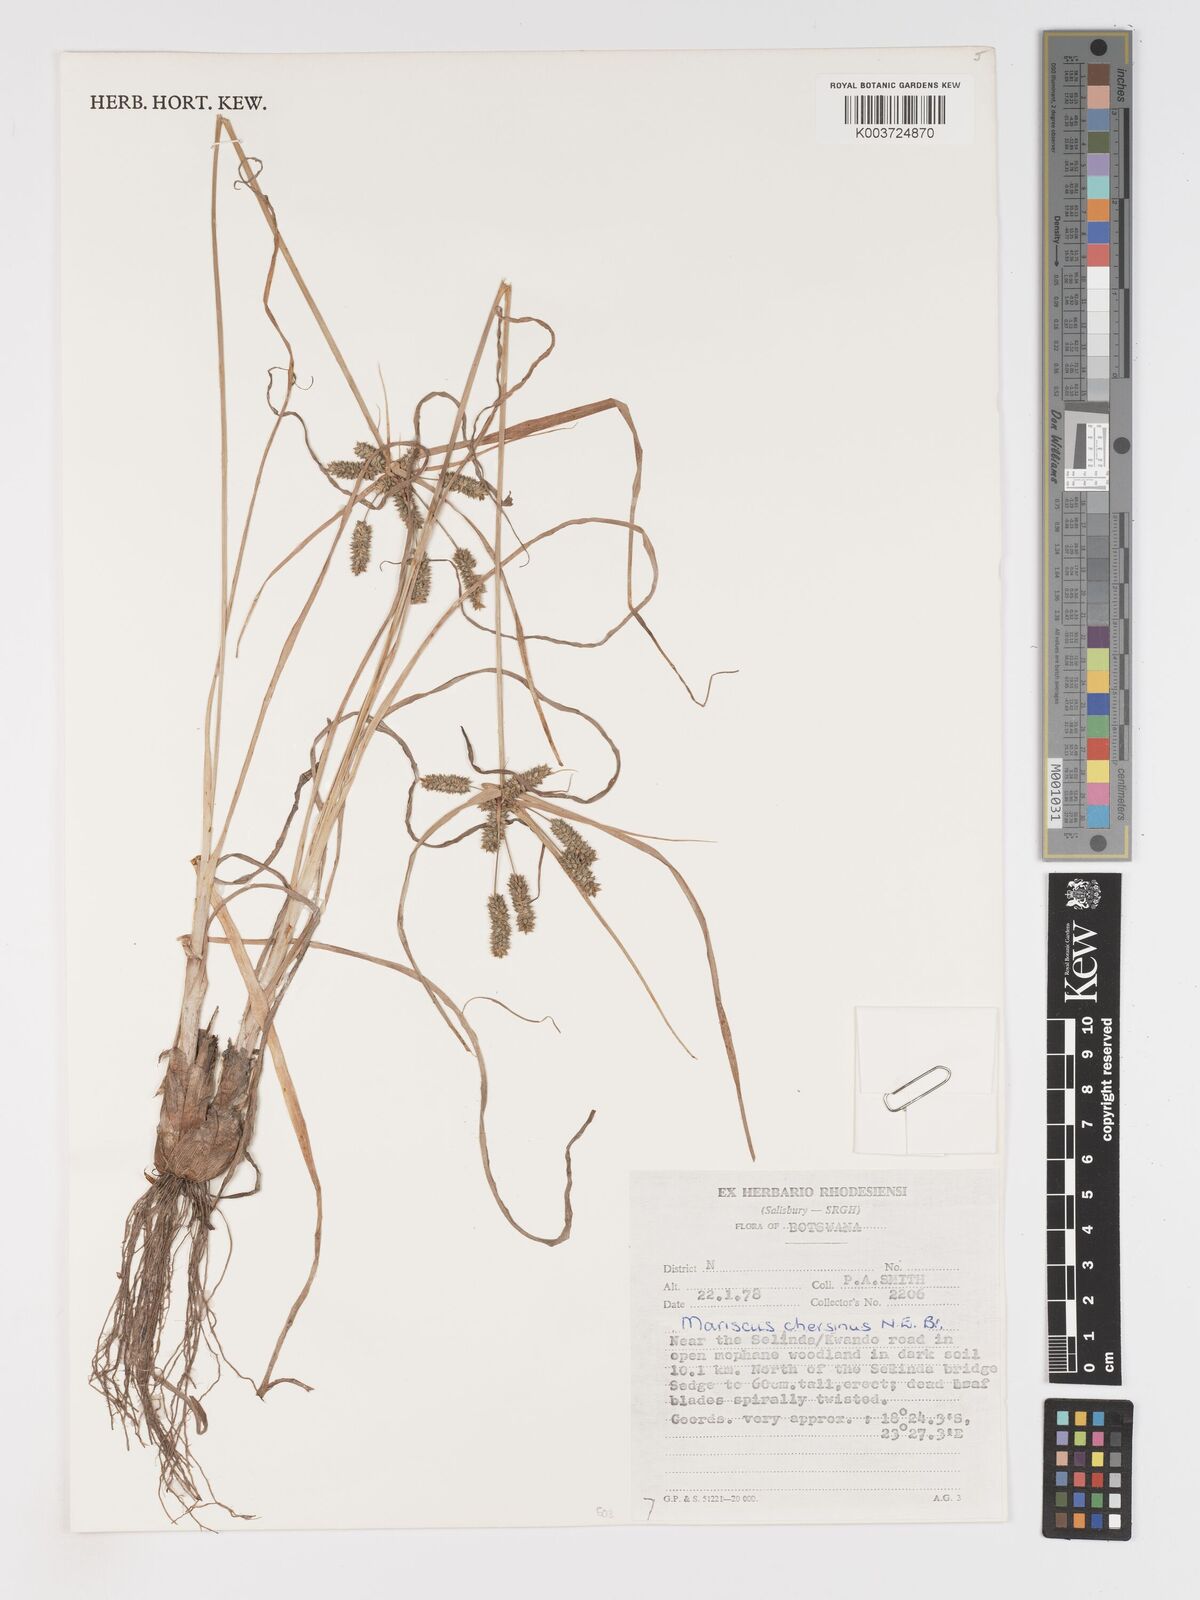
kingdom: Plantae
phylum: Tracheophyta
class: Liliopsida
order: Poales
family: Cyperaceae
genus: Cyperus
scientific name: Cyperus chersinus
